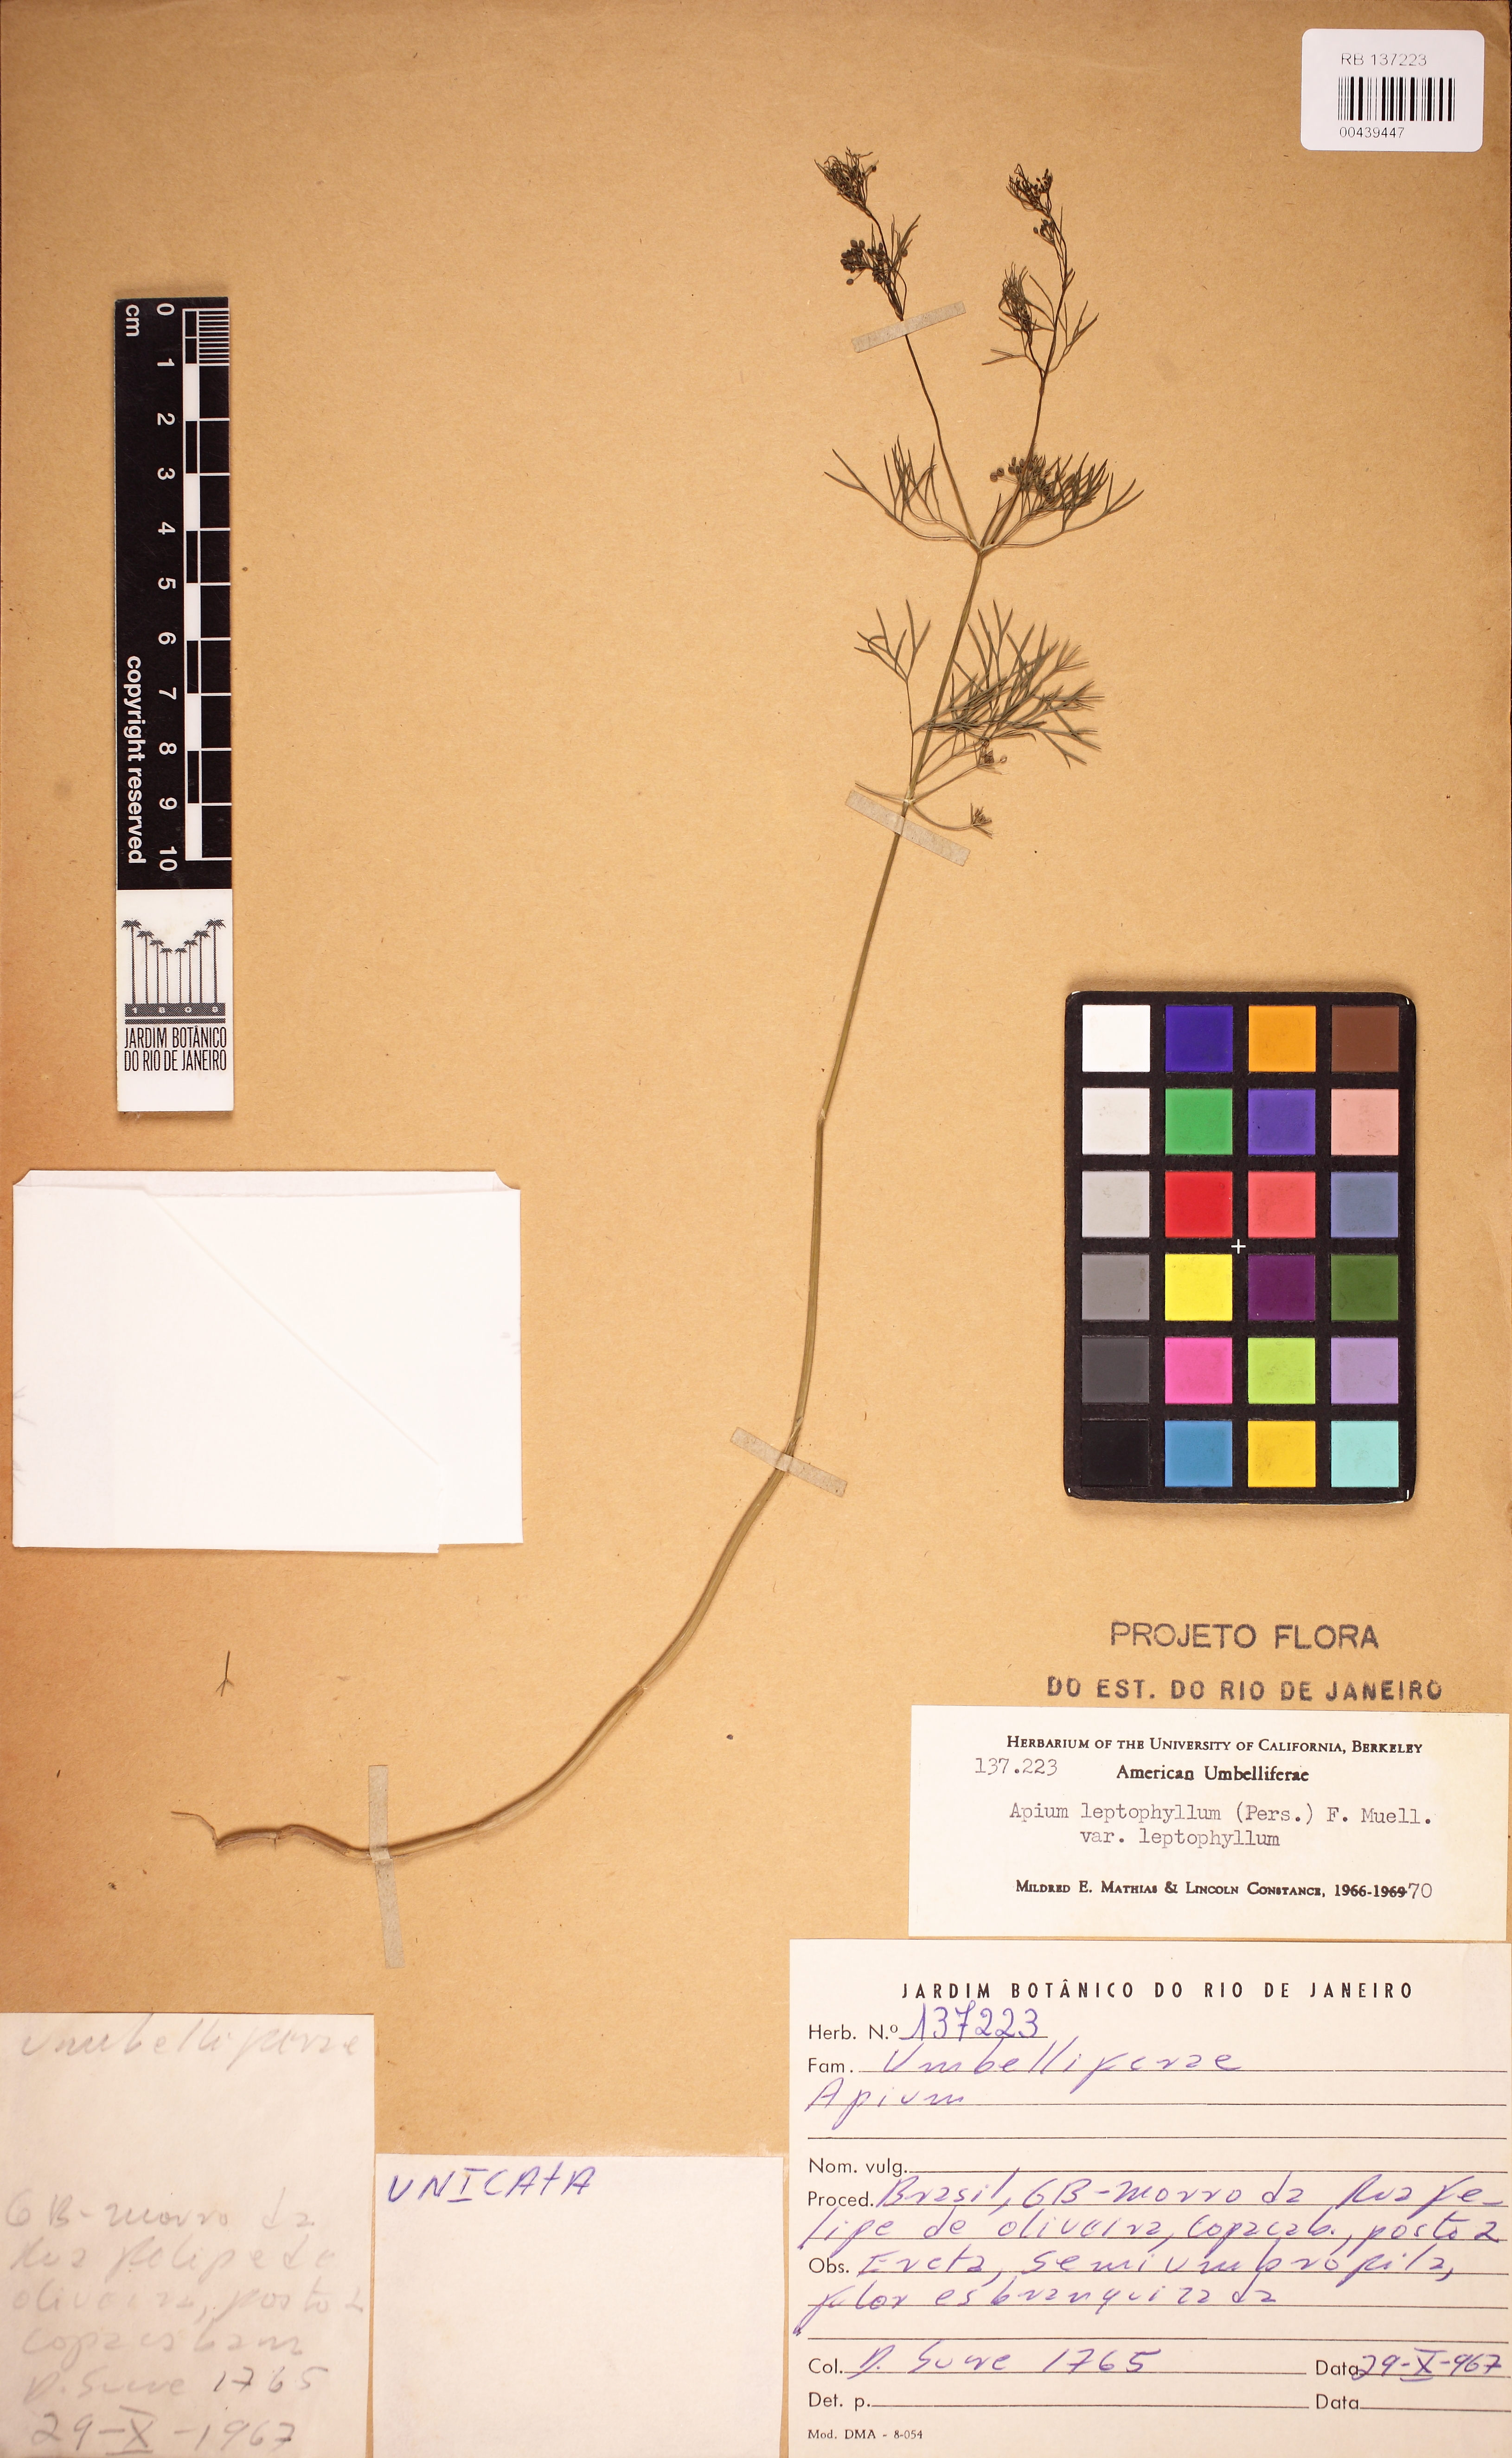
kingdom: Plantae
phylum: Tracheophyta
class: Magnoliopsida
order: Apiales
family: Apiaceae
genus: Cyclospermum
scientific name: Cyclospermum leptophyllum
